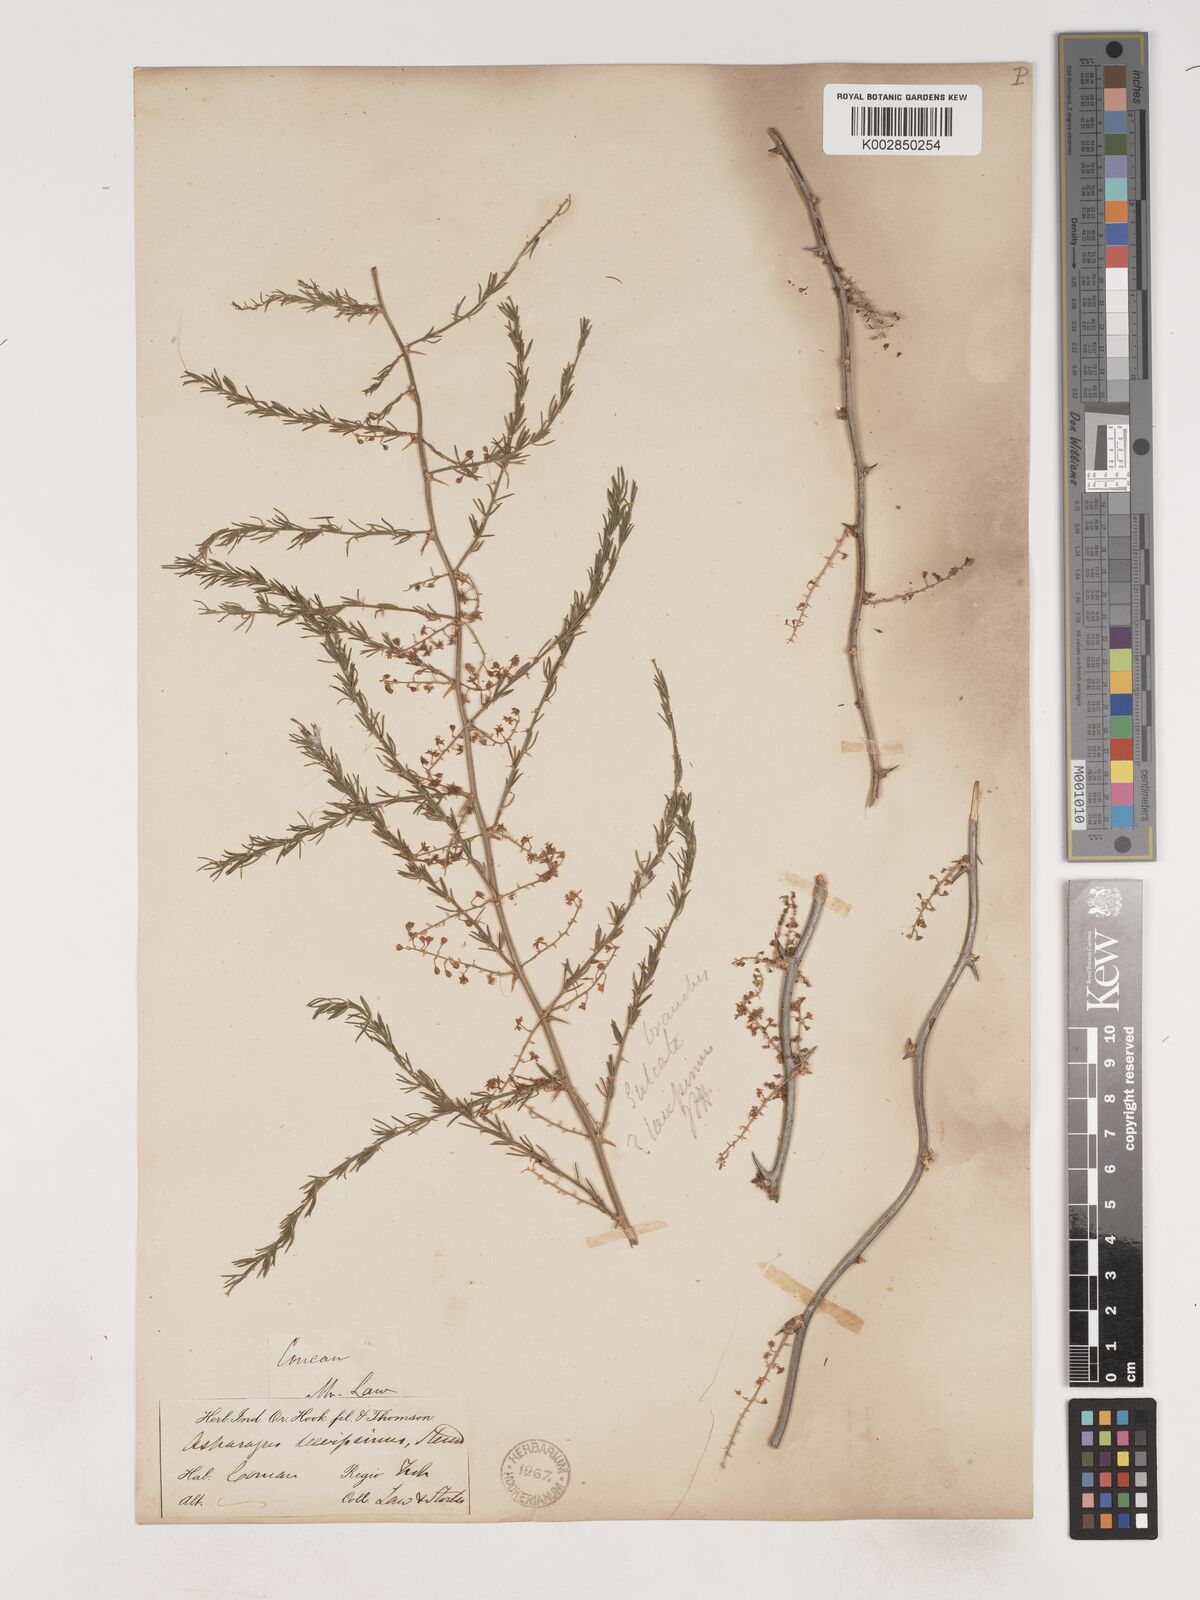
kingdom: Plantae
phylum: Tracheophyta
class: Liliopsida
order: Asparagales
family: Asparagaceae
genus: Asparagus
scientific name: Asparagus
